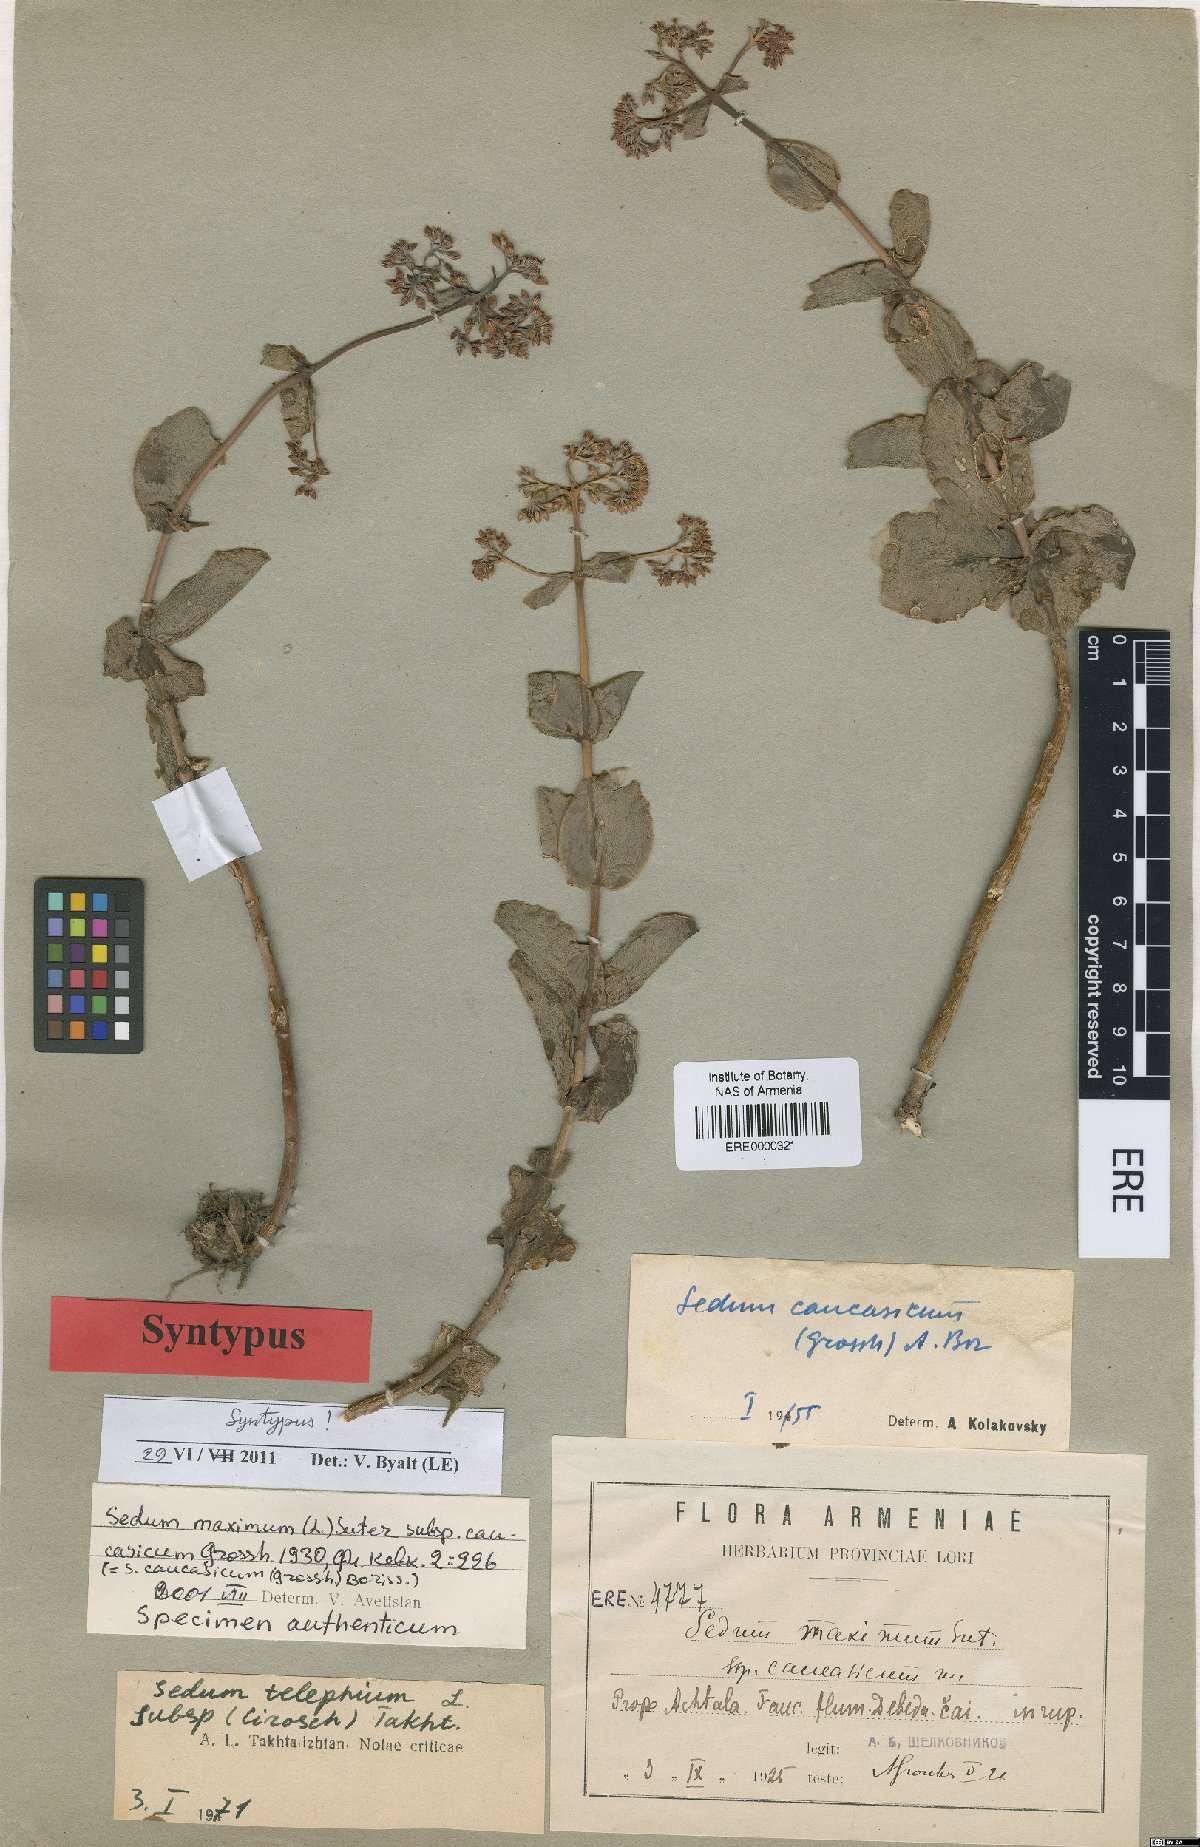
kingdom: Plantae
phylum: Tracheophyta
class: Magnoliopsida
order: Saxifragales
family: Crassulaceae
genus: Hylotelephium
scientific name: Hylotelephium maximum
